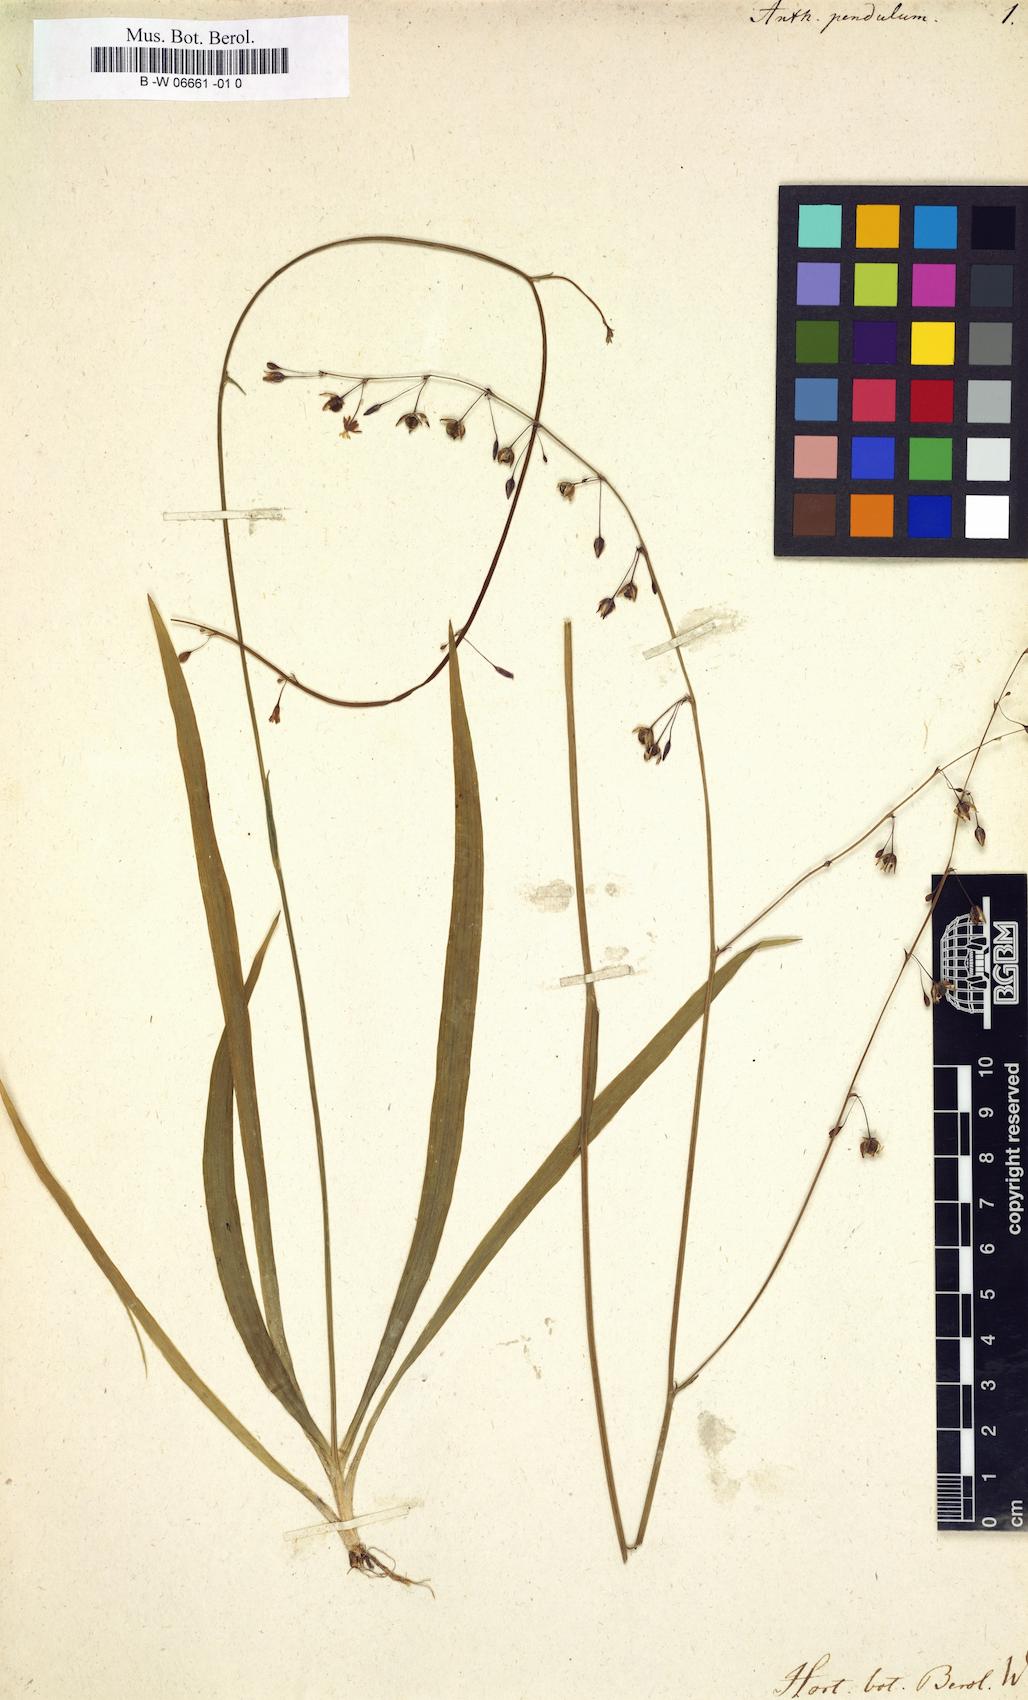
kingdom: Plantae
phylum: Tracheophyta
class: Liliopsida
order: Asparagales
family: Asparagaceae
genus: Chlorophytum
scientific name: Chlorophytum affine
